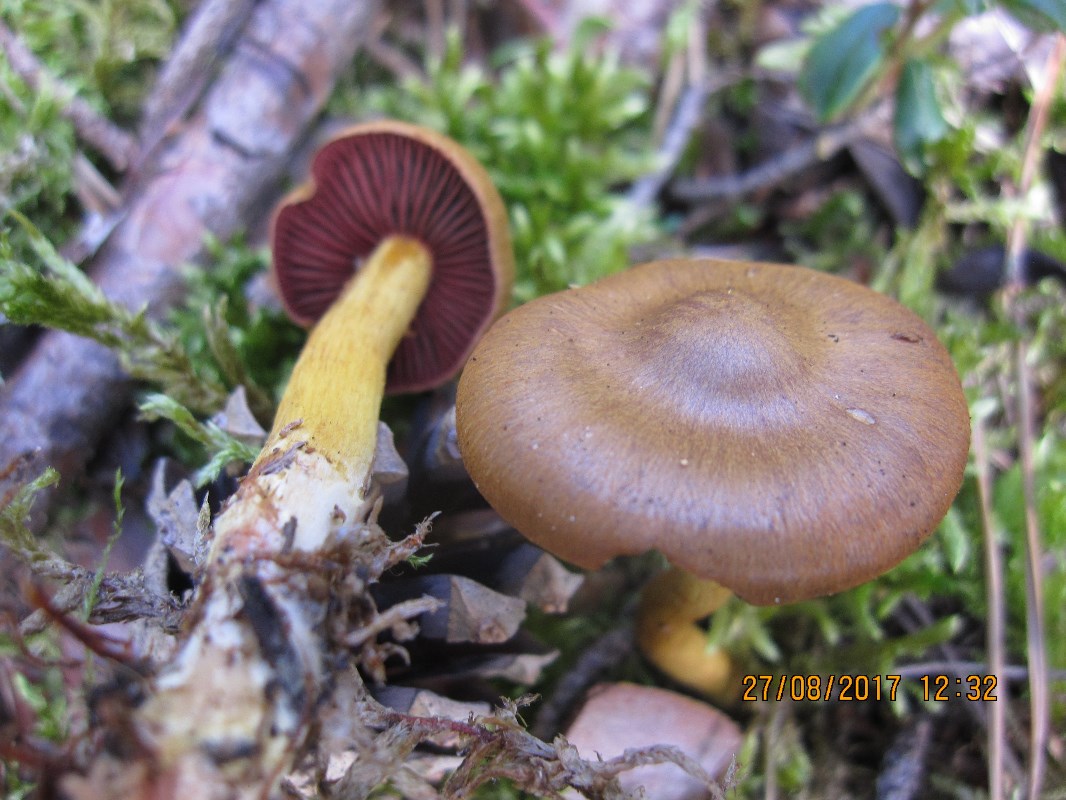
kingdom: Fungi
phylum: Basidiomycota
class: Agaricomycetes
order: Agaricales
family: Cortinariaceae
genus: Cortinarius
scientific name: Cortinarius
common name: cinnoberbladet slørhat
